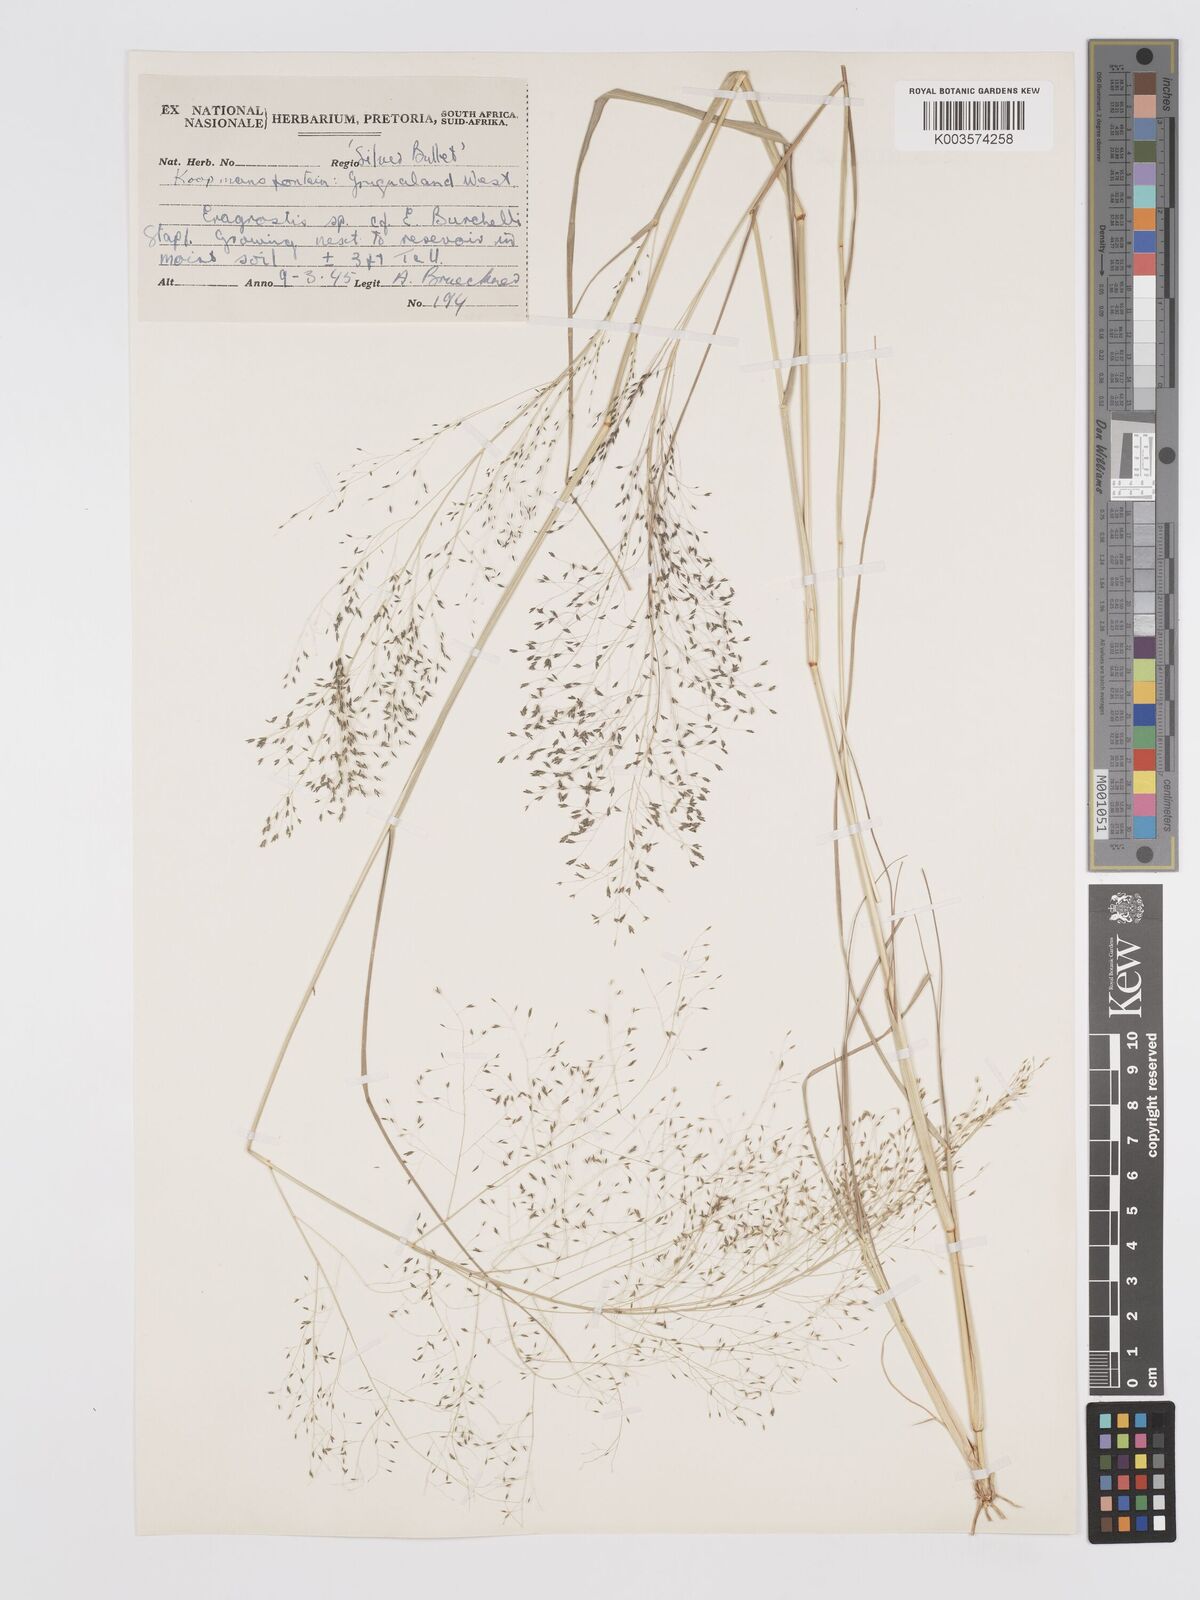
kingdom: Plantae
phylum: Tracheophyta
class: Liliopsida
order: Poales
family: Poaceae
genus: Eragrostis
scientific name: Eragrostis micrantha
